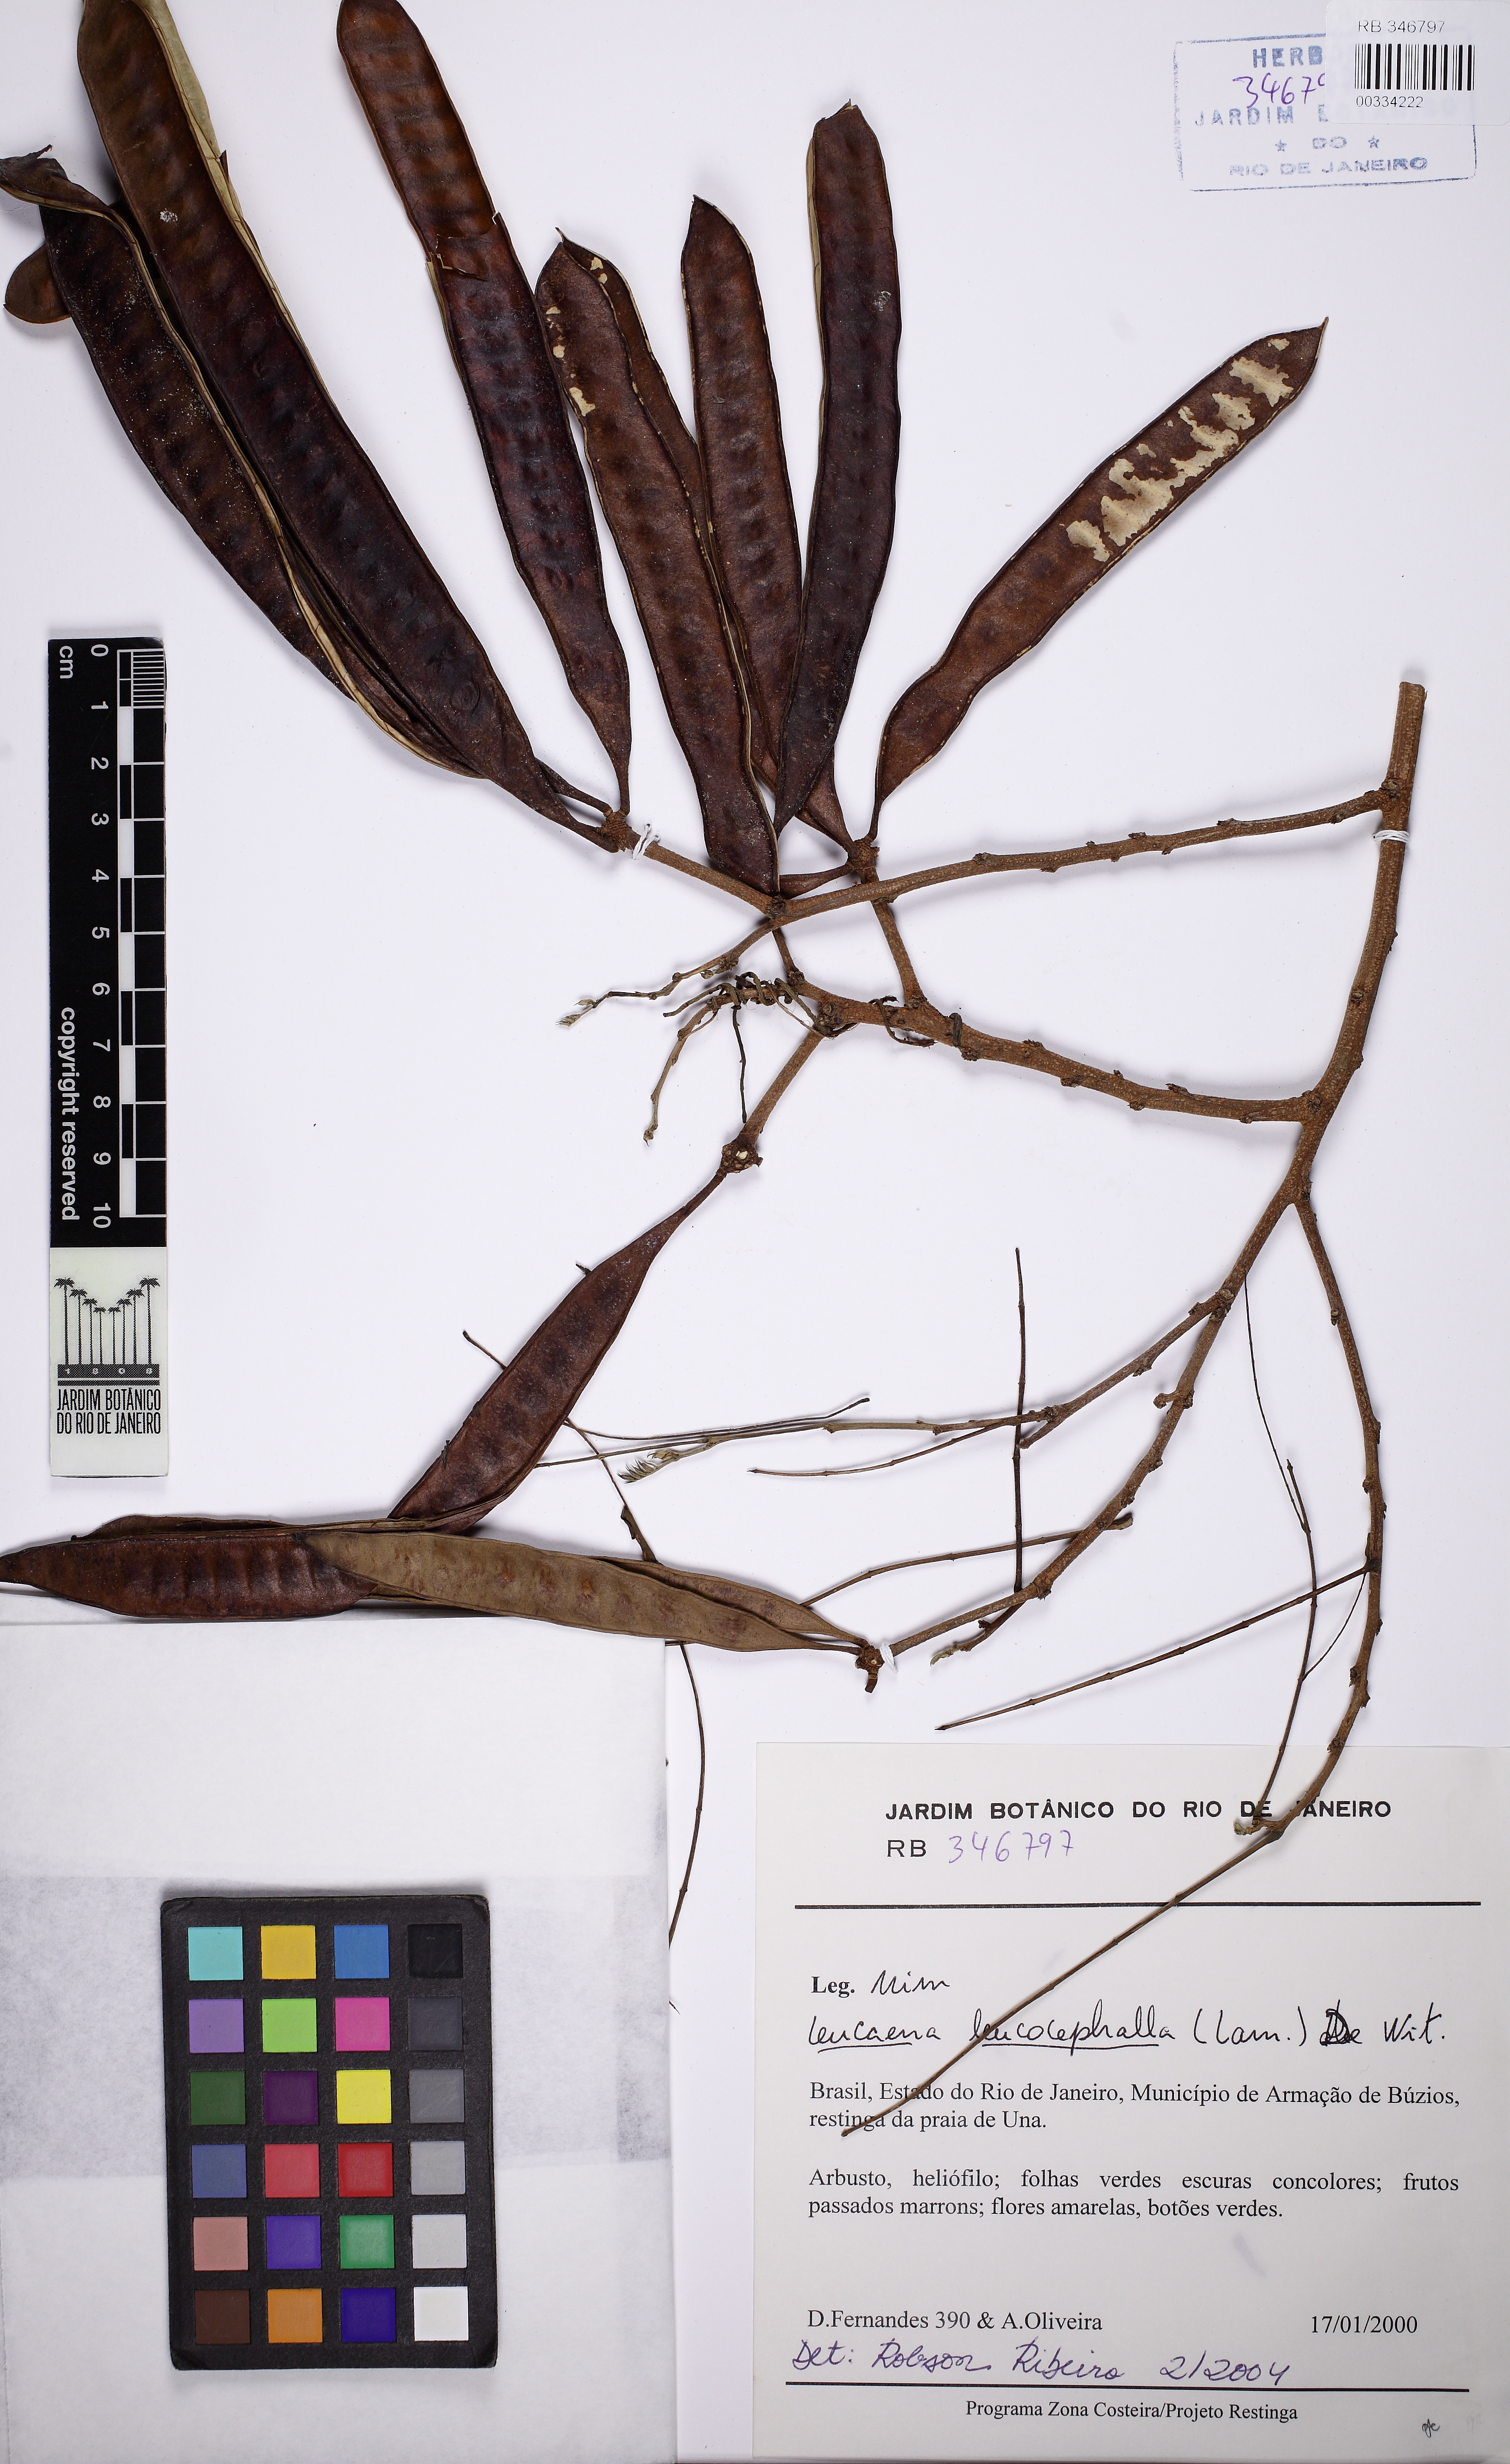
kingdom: Plantae
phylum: Tracheophyta
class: Magnoliopsida
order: Fabales
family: Fabaceae
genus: Leucaena
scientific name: Leucaena leucocephala
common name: White leadtree
